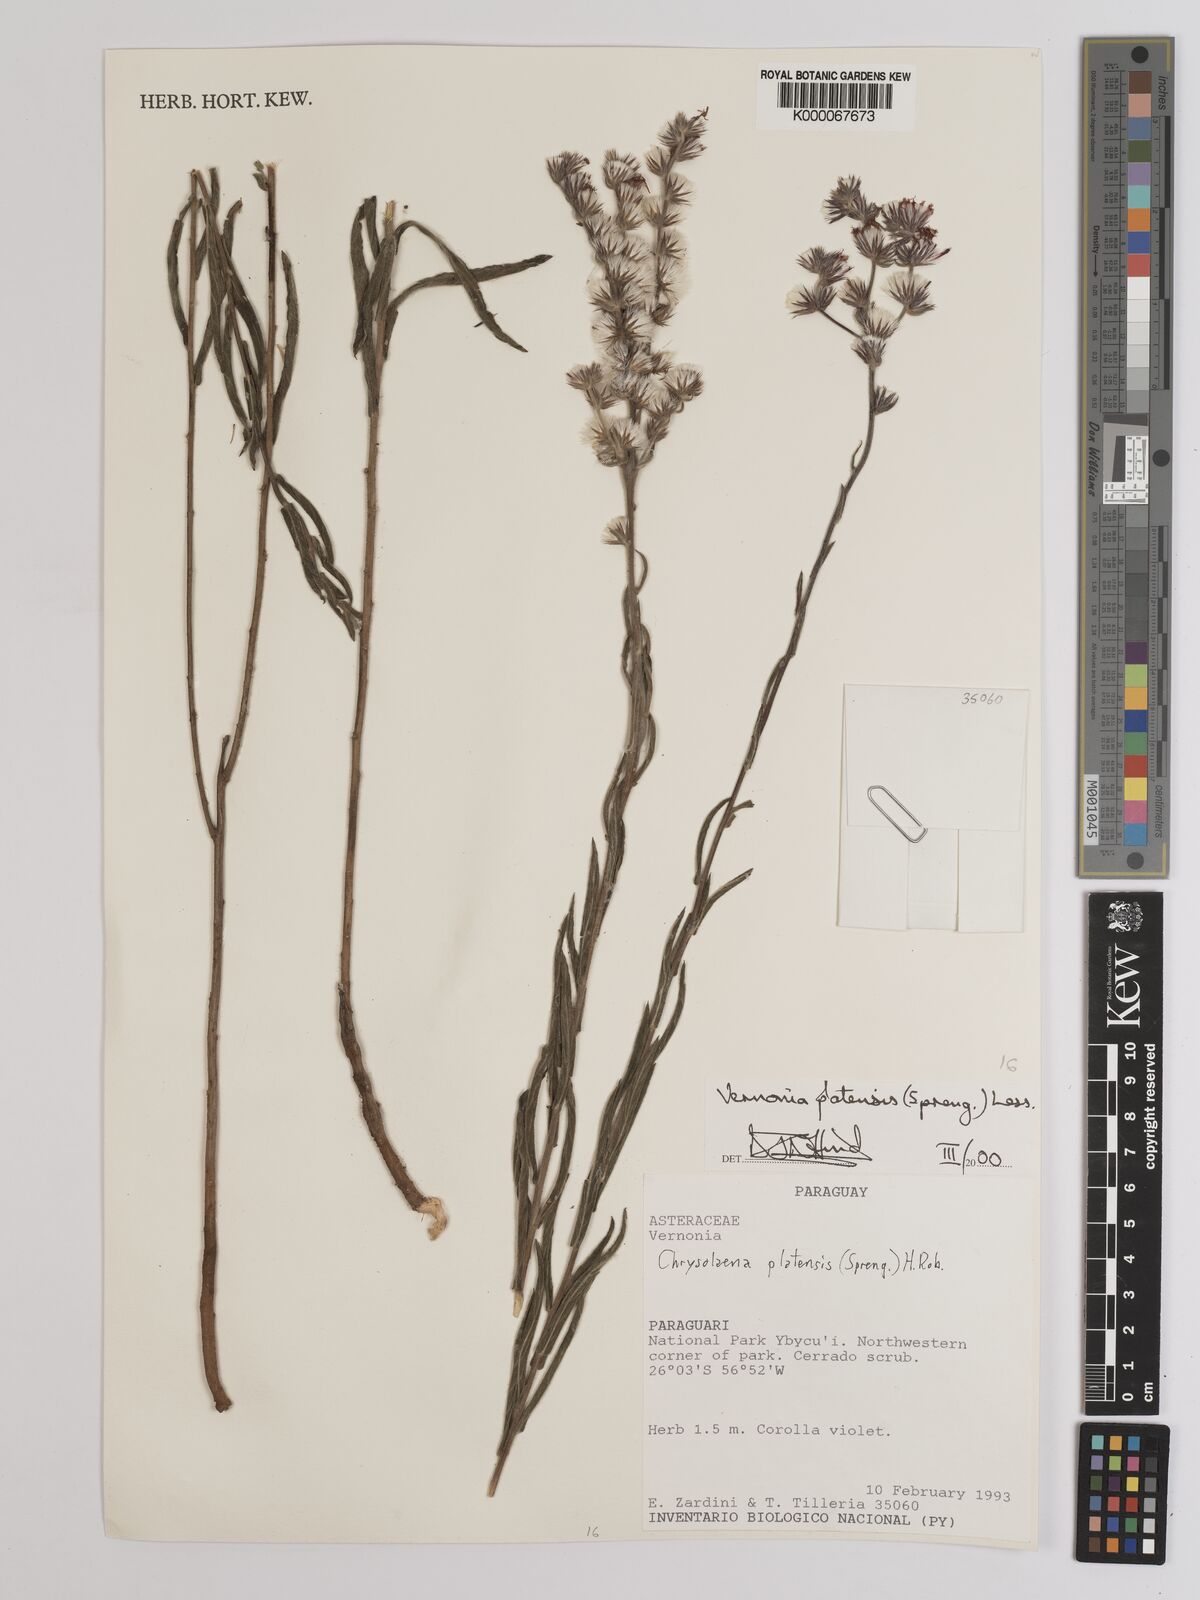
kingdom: Plantae
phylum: Tracheophyta
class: Magnoliopsida
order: Asterales
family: Asteraceae
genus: Chrysolaena
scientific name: Chrysolaena platensis
